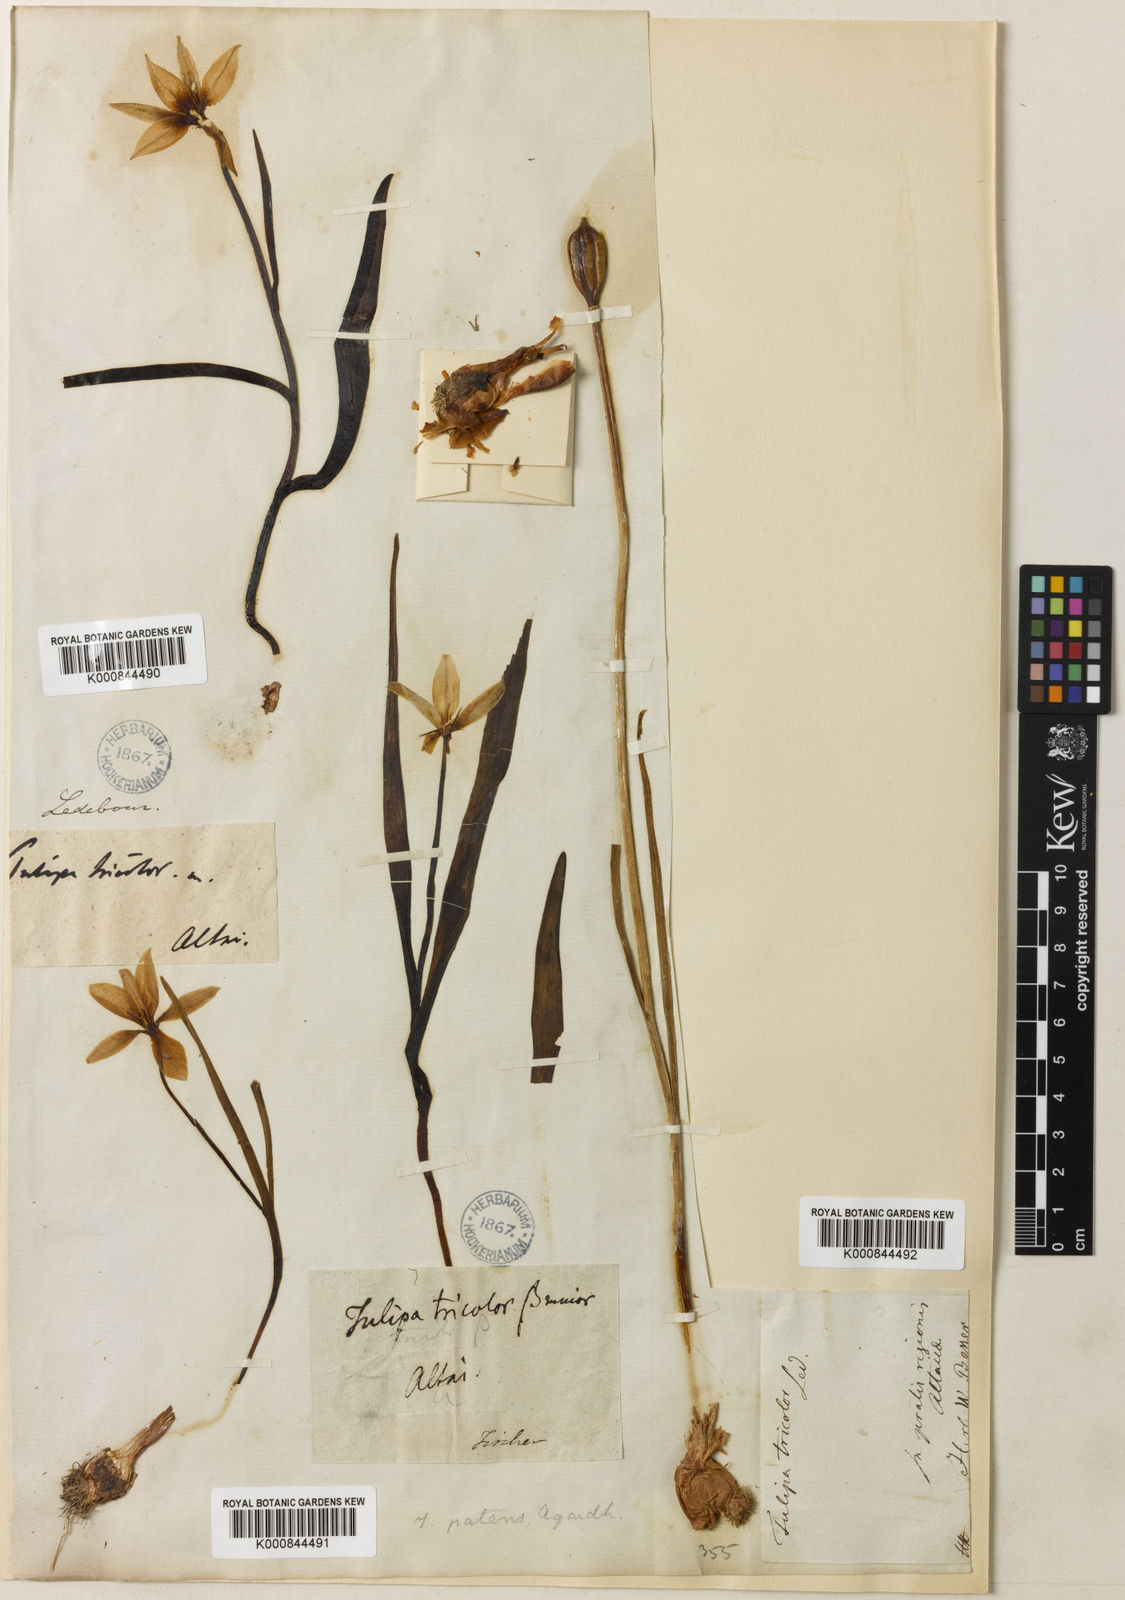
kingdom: Plantae
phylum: Tracheophyta
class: Liliopsida
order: Liliales
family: Liliaceae
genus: Tulipa
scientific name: Tulipa
